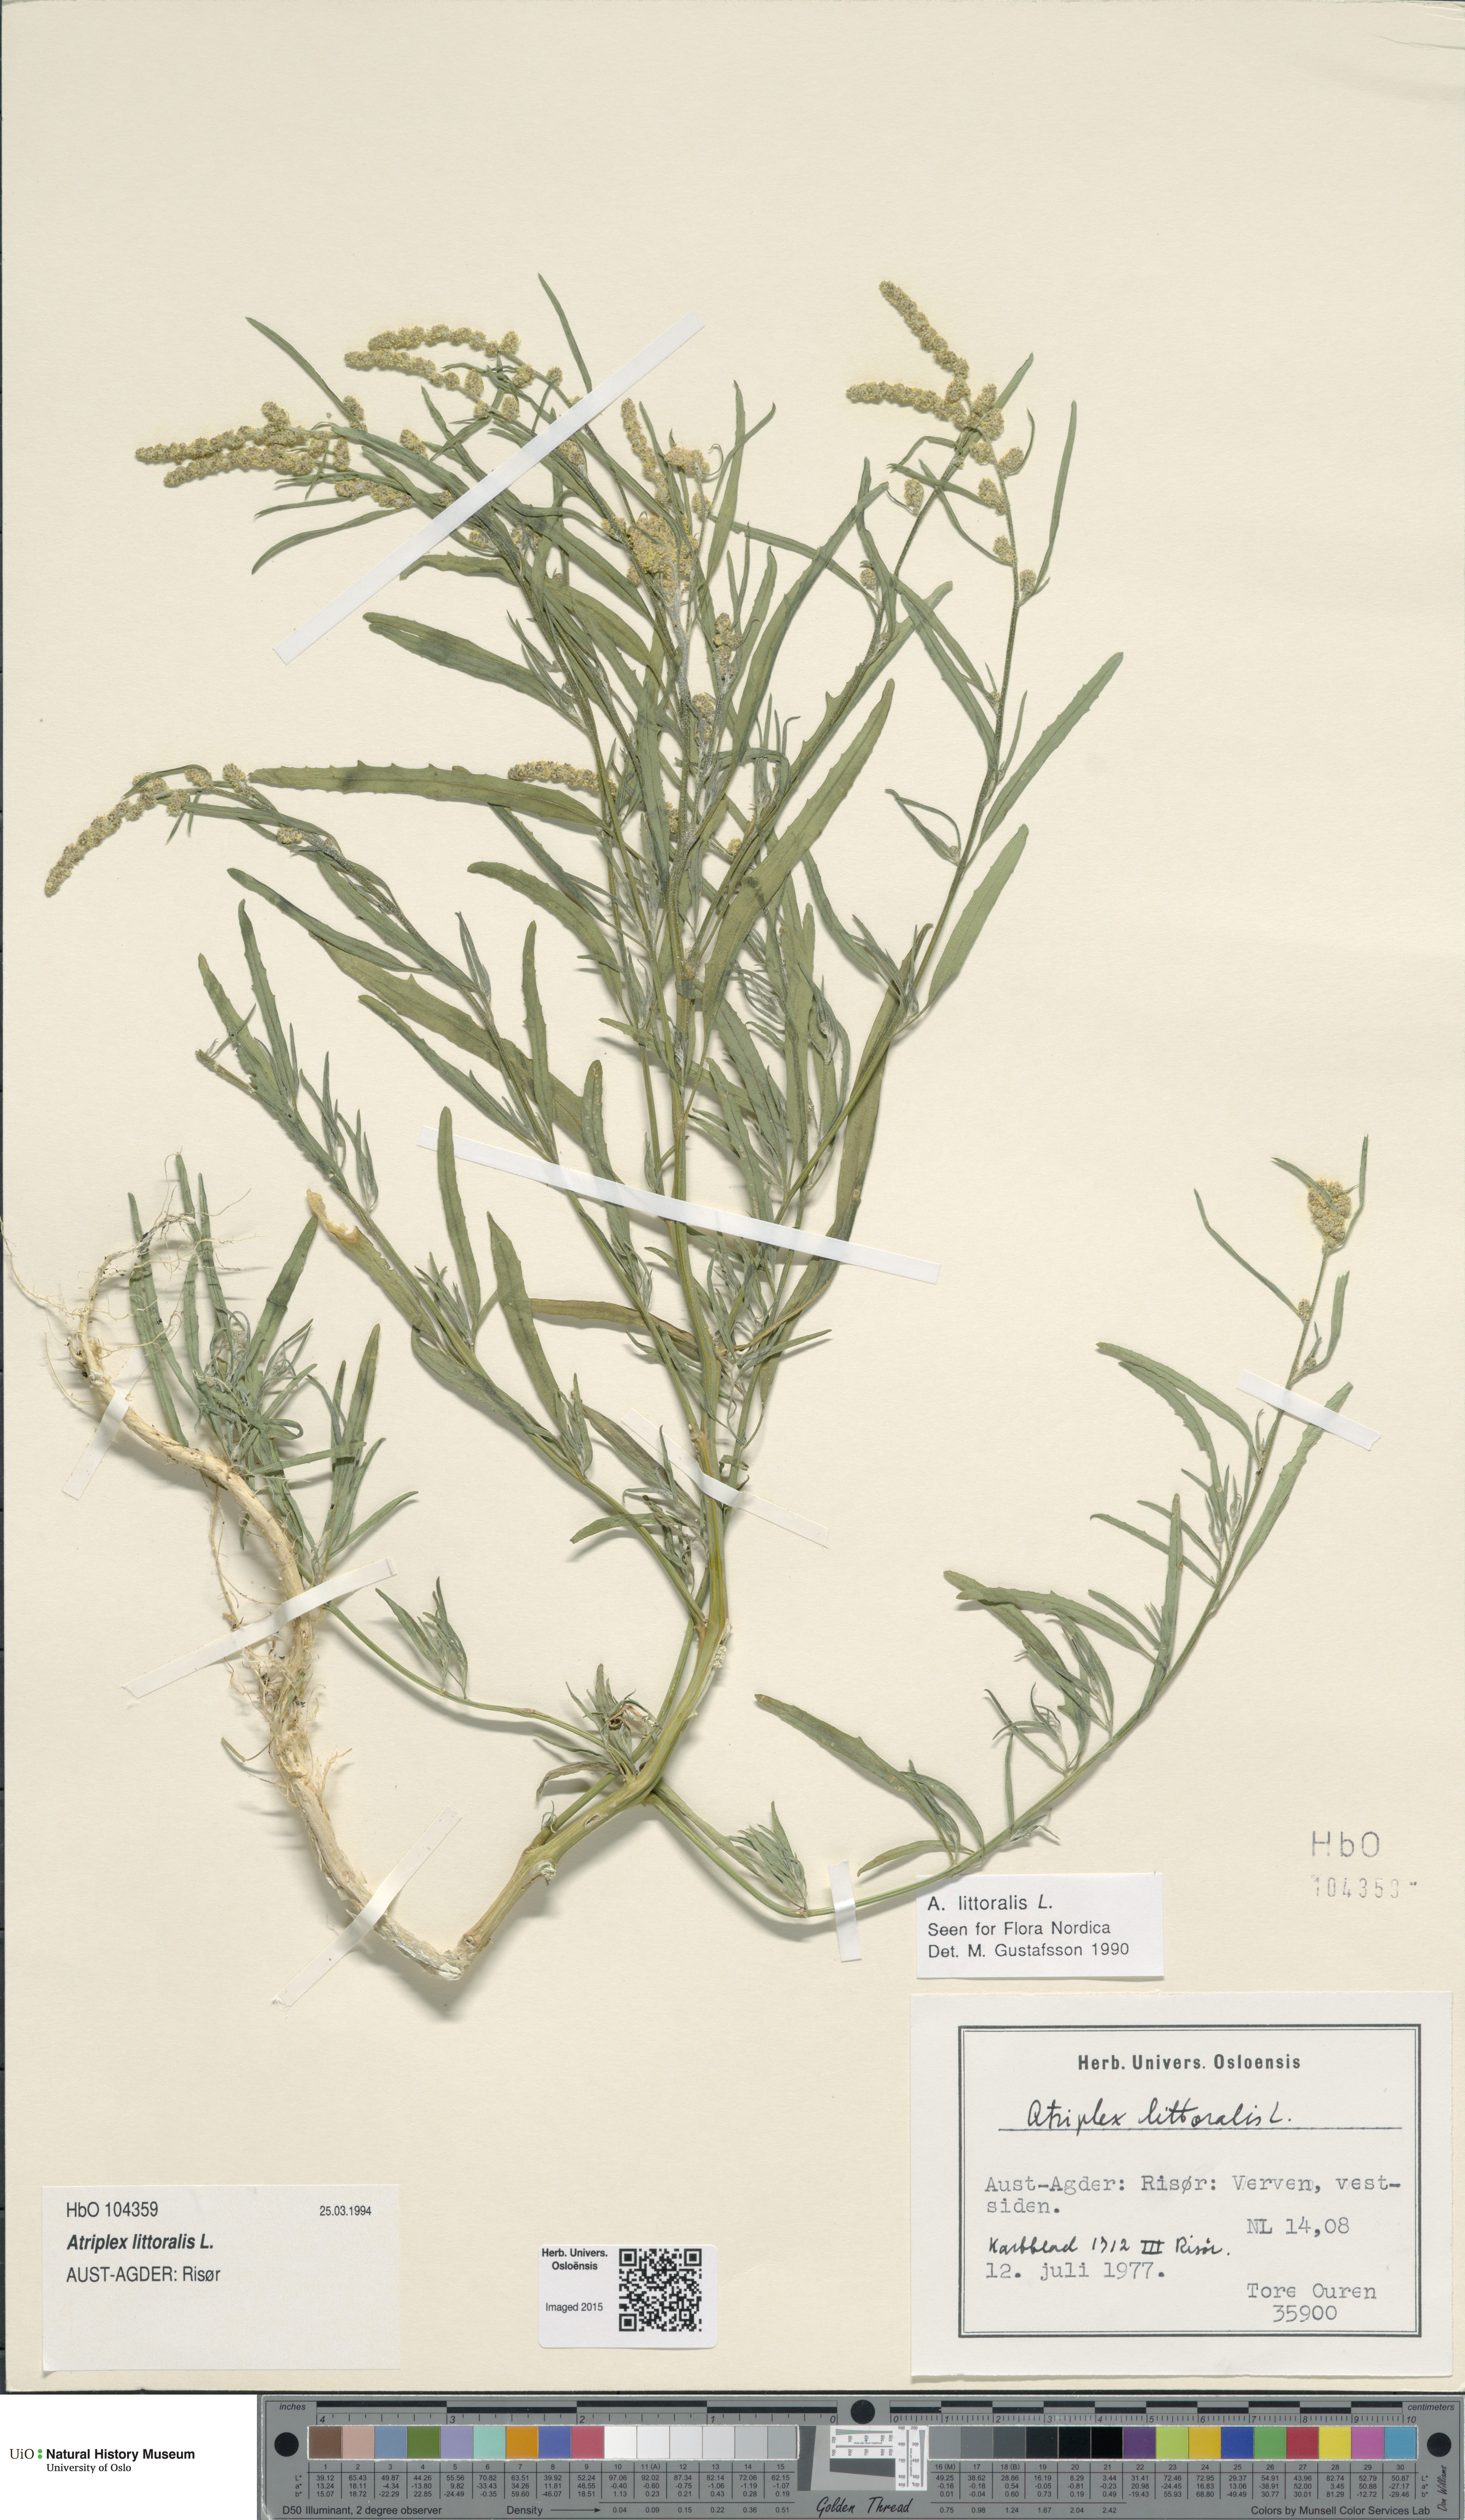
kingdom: Plantae
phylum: Tracheophyta
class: Magnoliopsida
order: Caryophyllales
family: Amaranthaceae
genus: Atriplex
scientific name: Atriplex littoralis
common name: Grass-leaved orache
